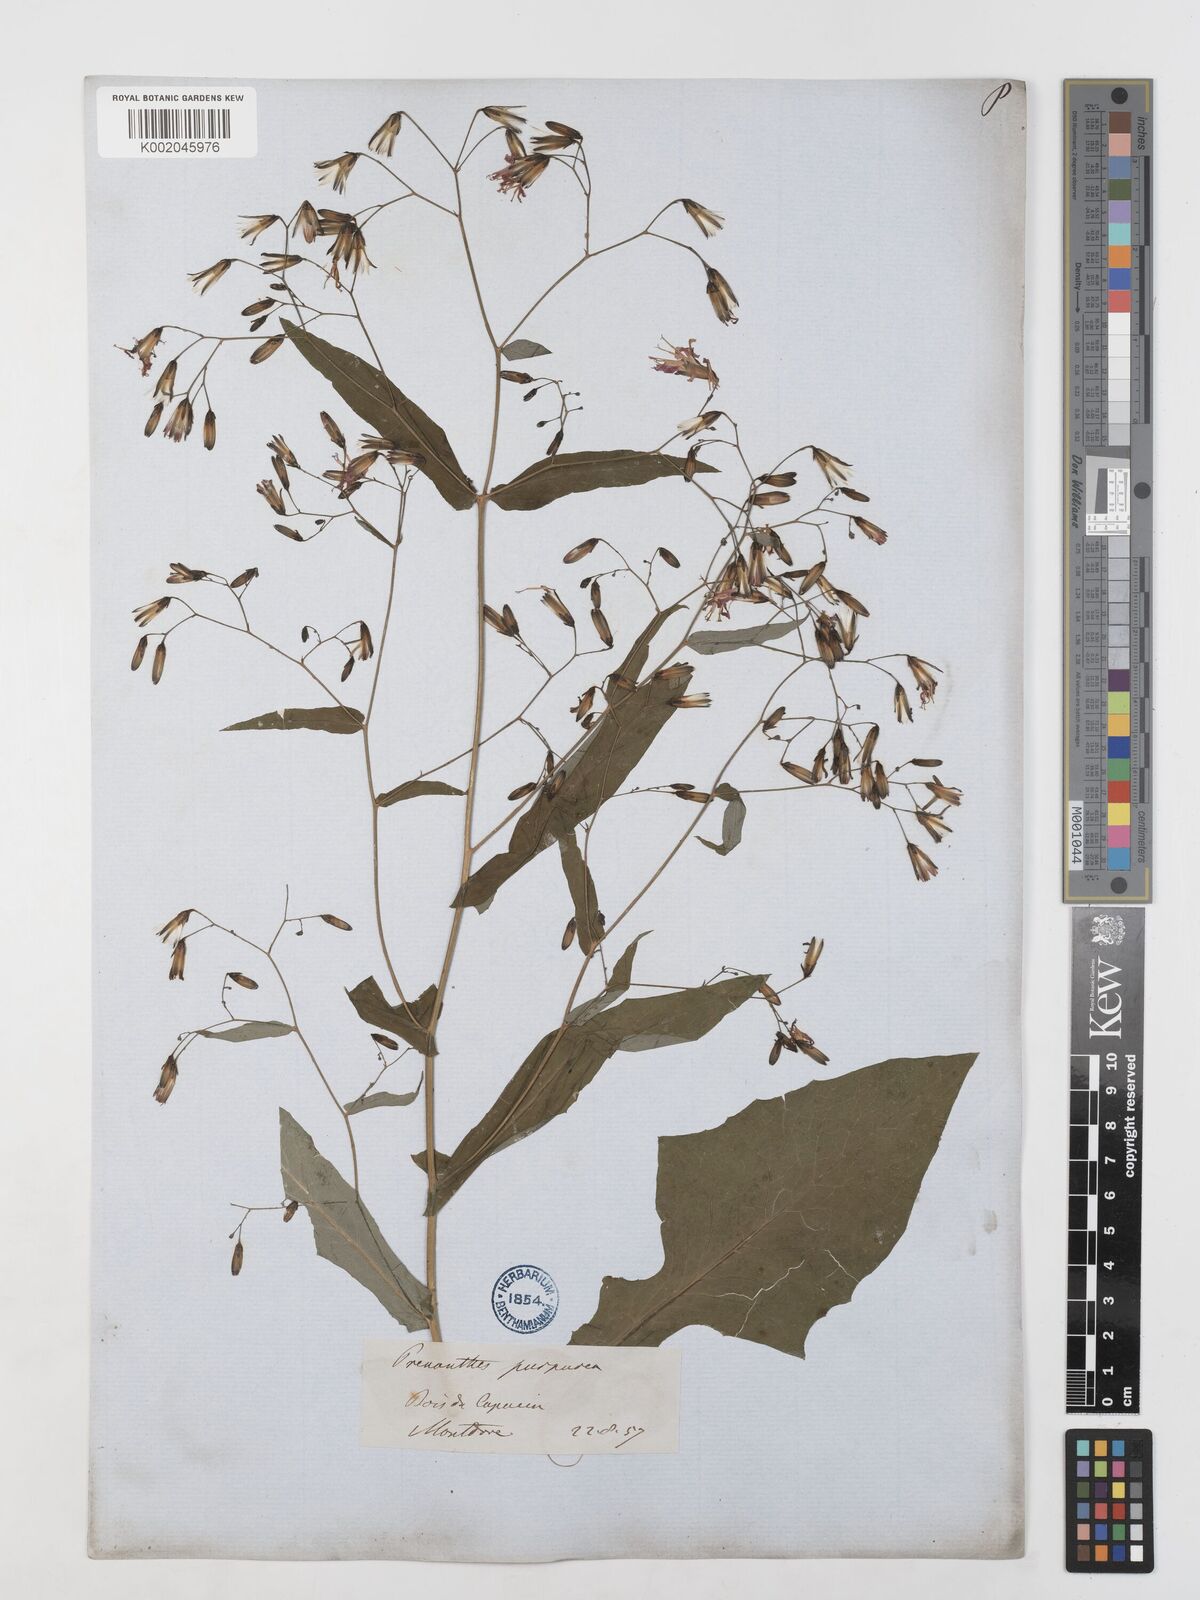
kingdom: Plantae
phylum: Tracheophyta
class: Magnoliopsida
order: Asterales
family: Asteraceae
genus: Prenanthes
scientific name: Prenanthes purpurea
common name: Purple lettuce
